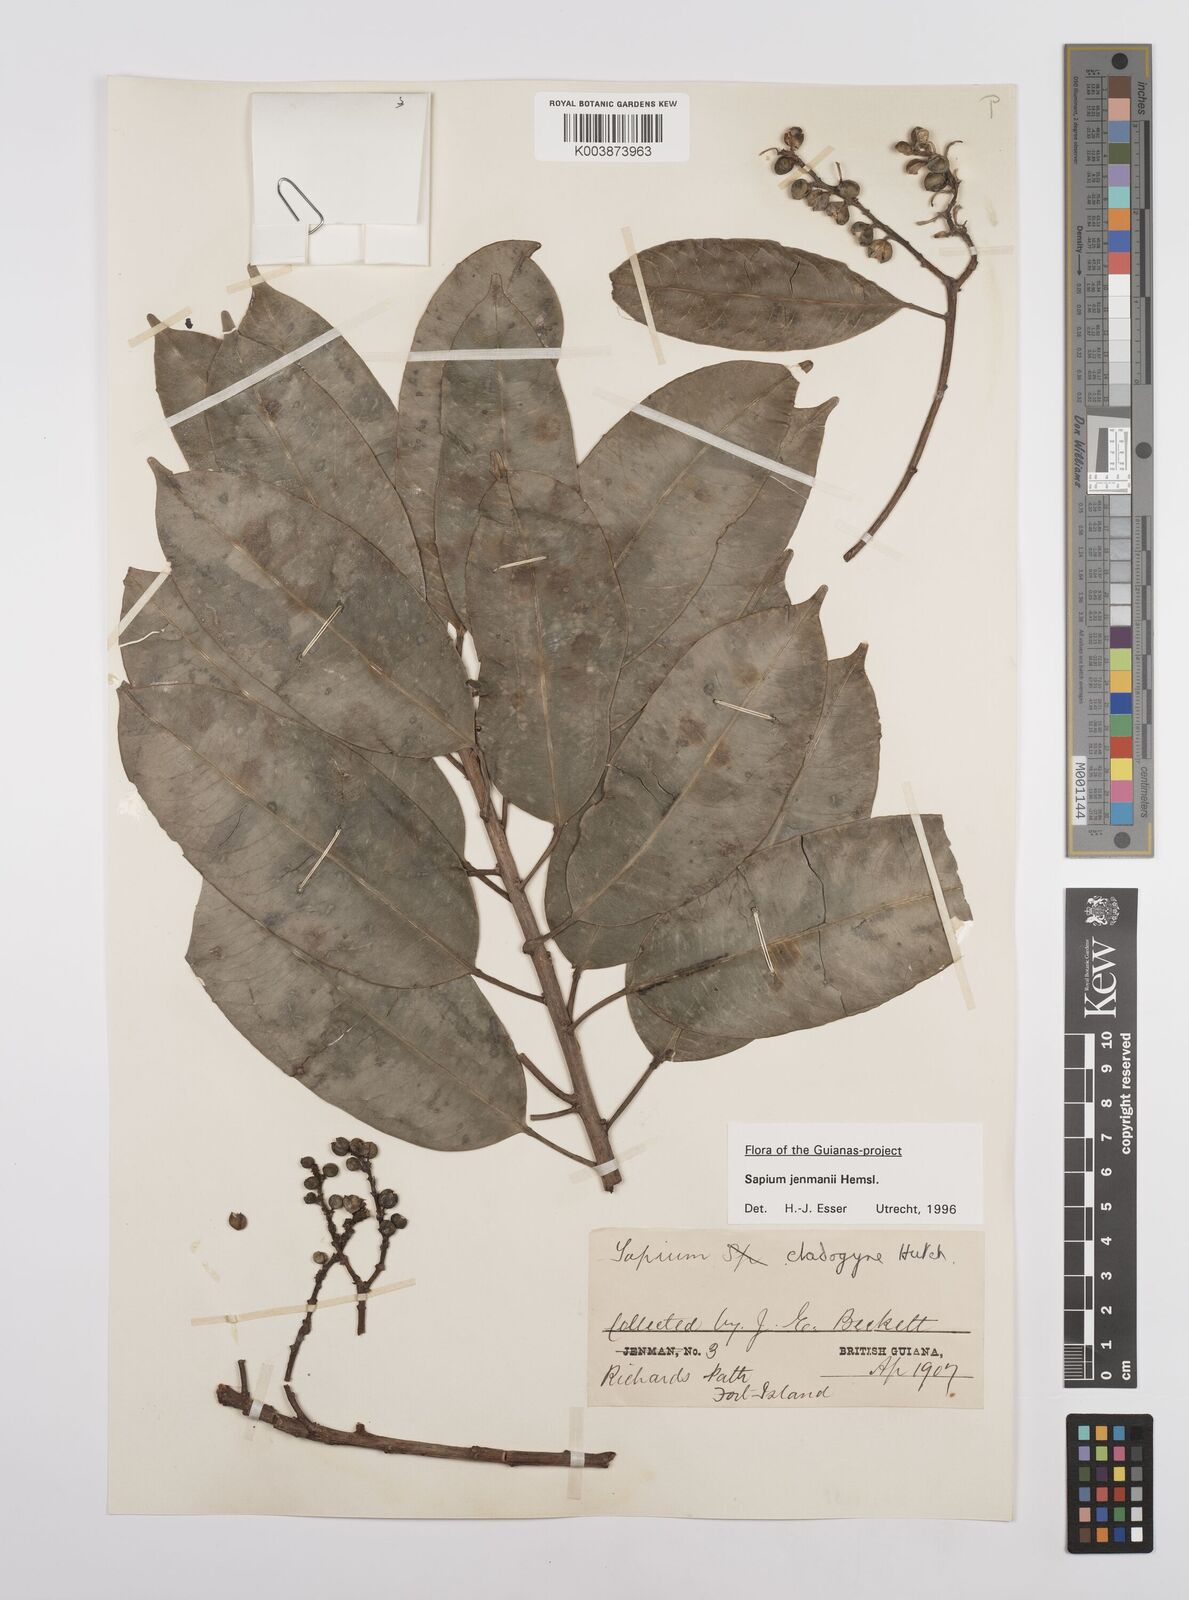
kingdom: Plantae
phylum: Tracheophyta
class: Magnoliopsida
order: Malpighiales
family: Euphorbiaceae
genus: Sapium
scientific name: Sapium jenmannii
